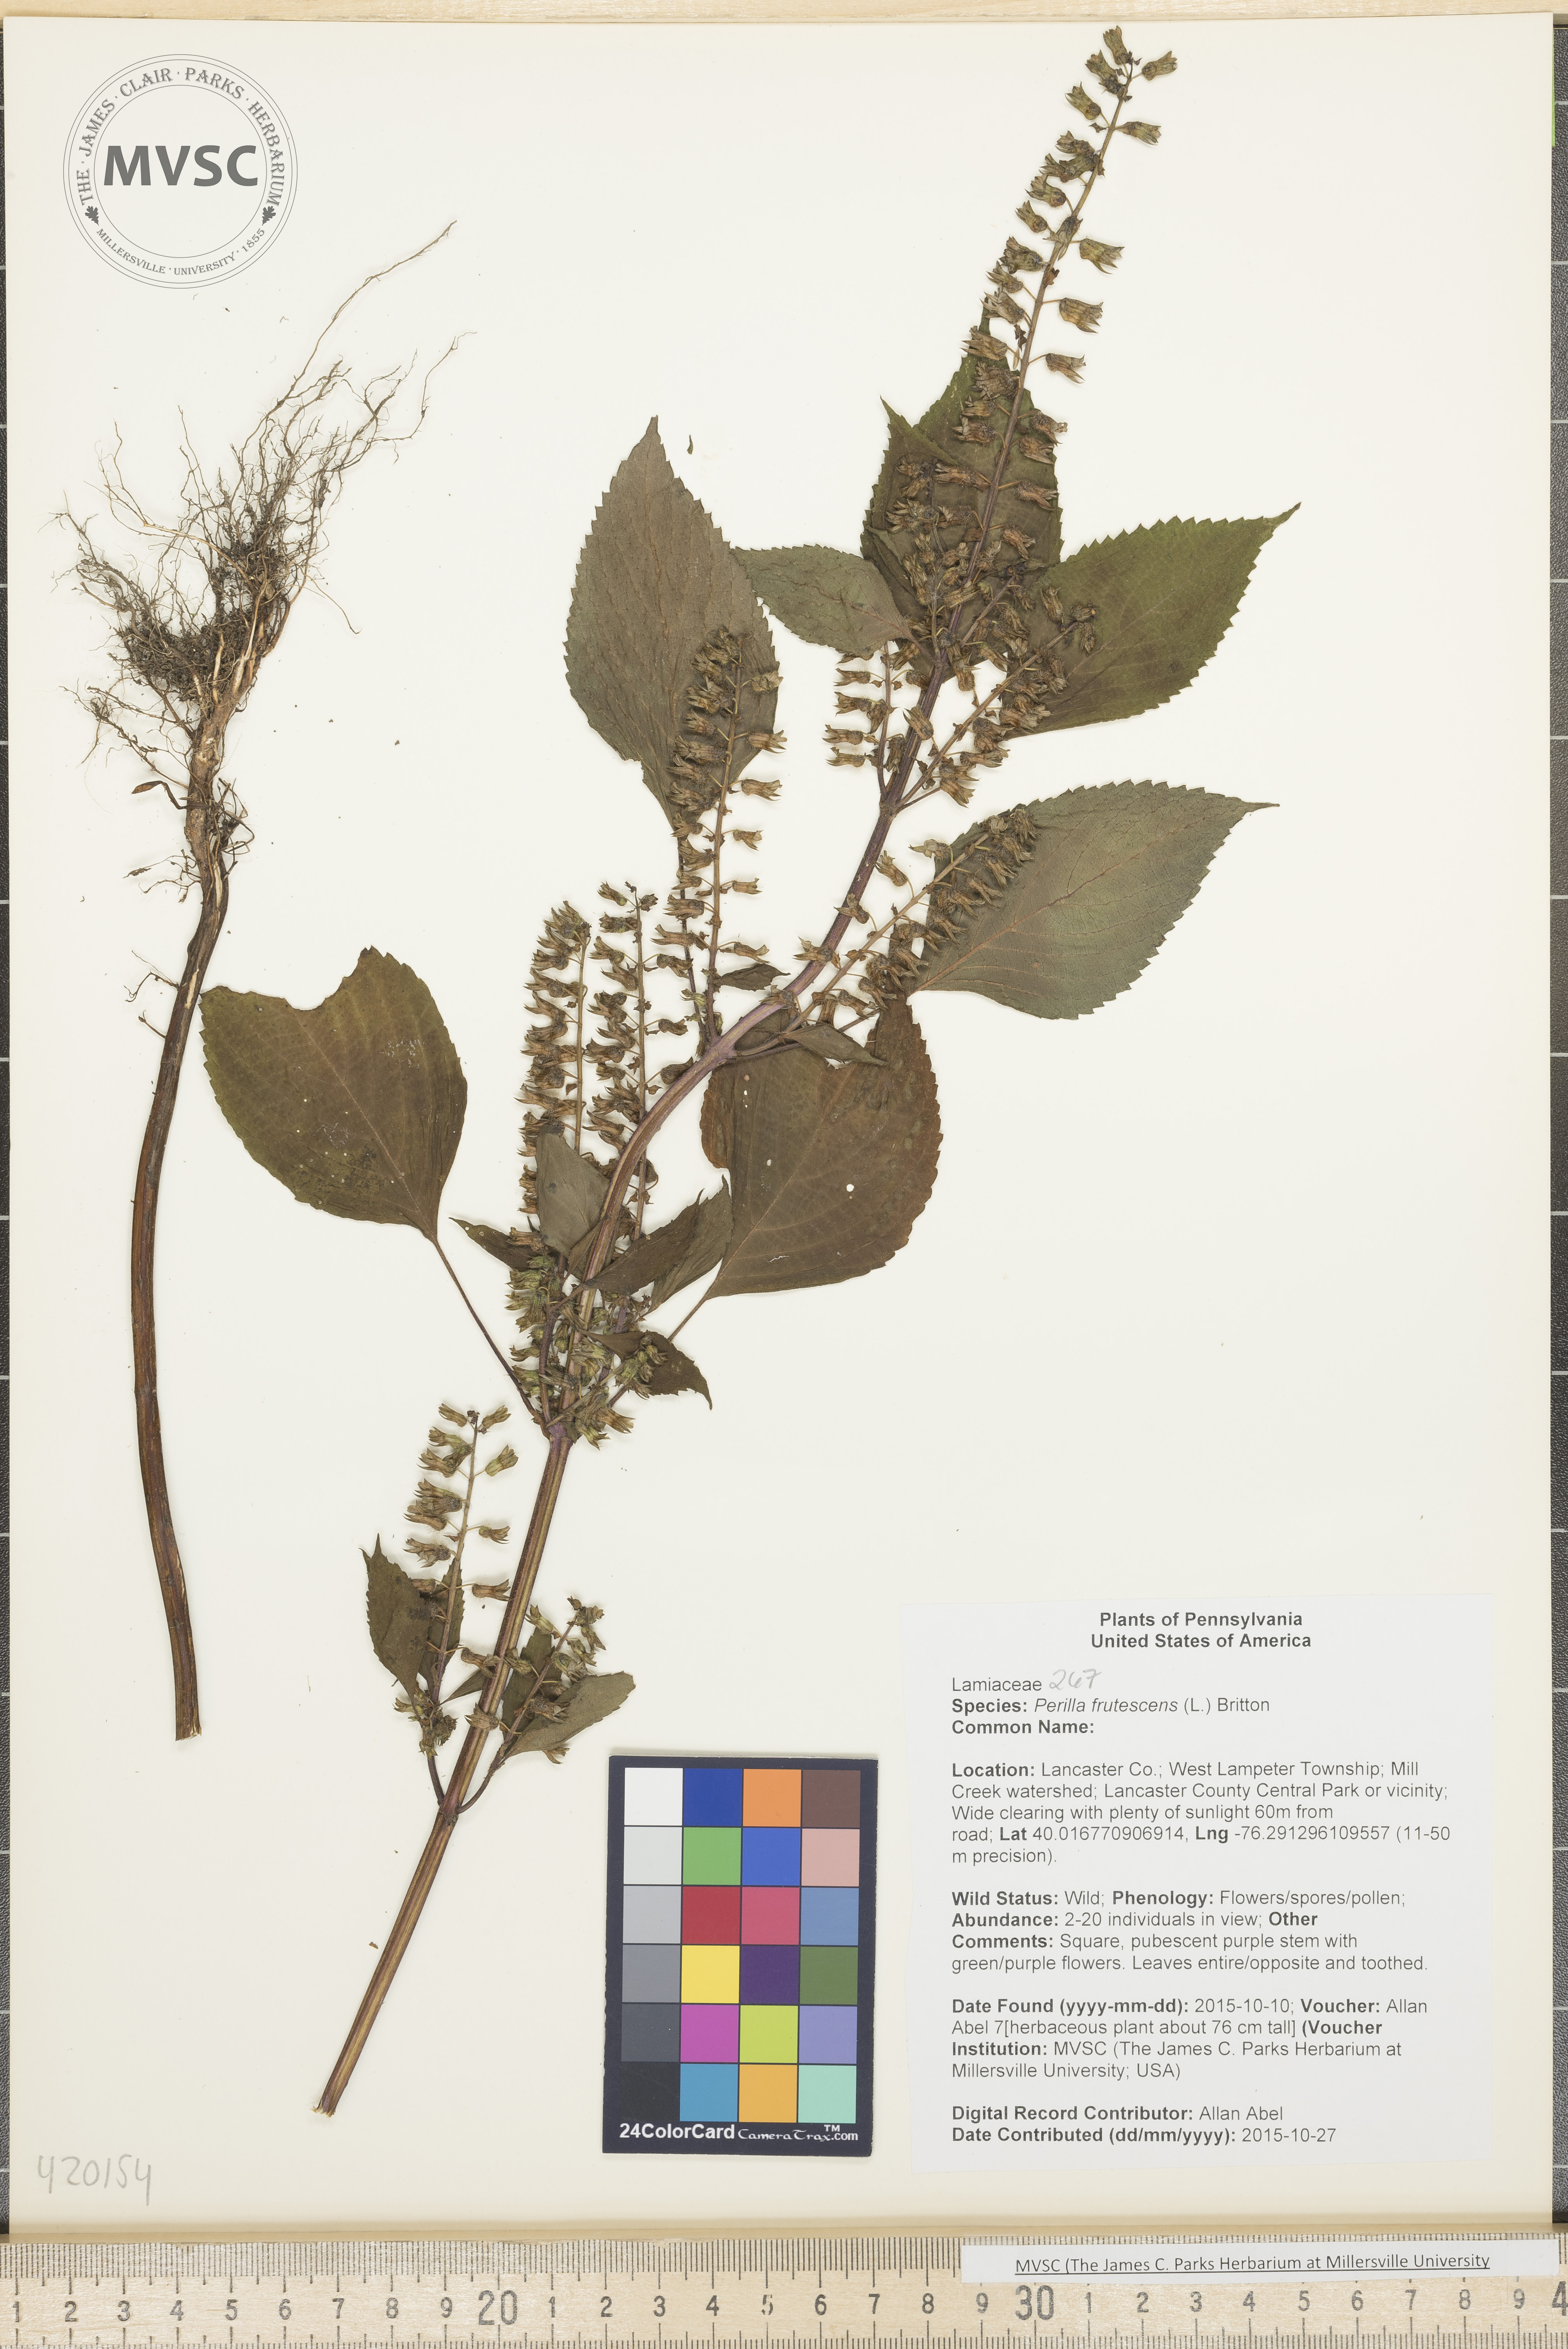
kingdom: Plantae
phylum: Tracheophyta
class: Magnoliopsida
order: Lamiales
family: Lamiaceae
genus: Perilla
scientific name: Perilla frutescens
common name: Beefsteak plant
